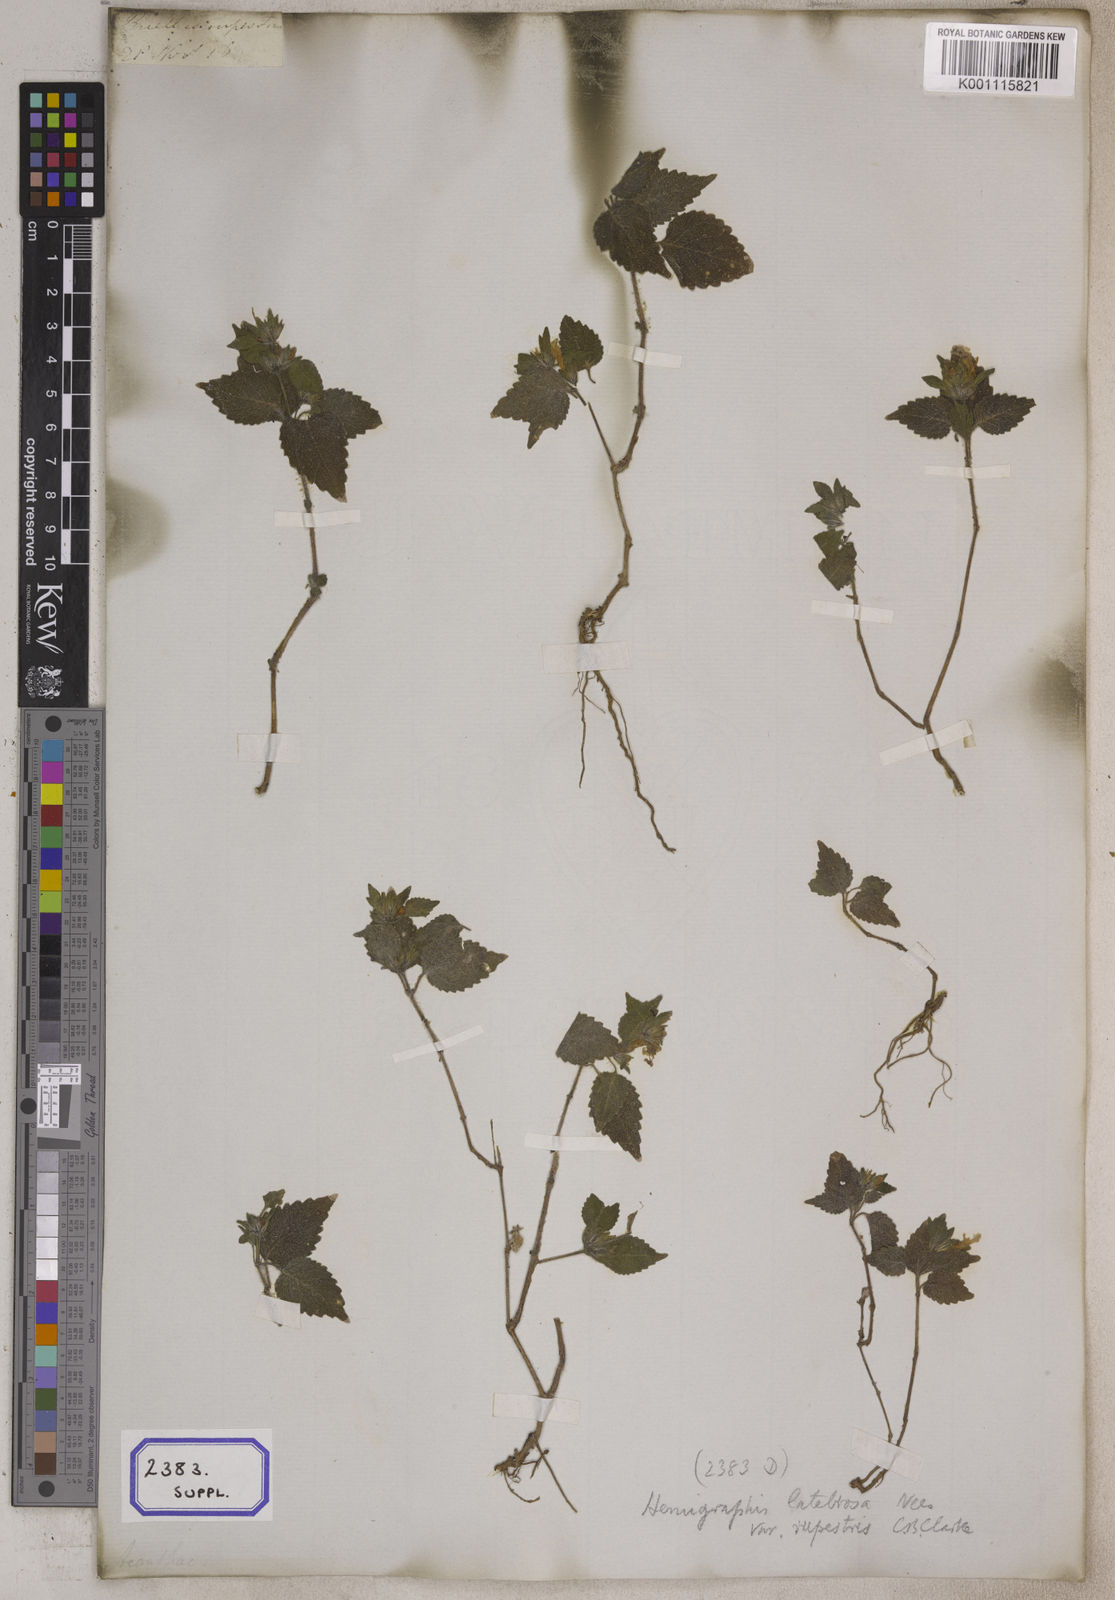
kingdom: Plantae
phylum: Tracheophyta
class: Magnoliopsida
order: Lamiales
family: Acanthaceae
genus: Ruellia
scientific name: Ruellia
